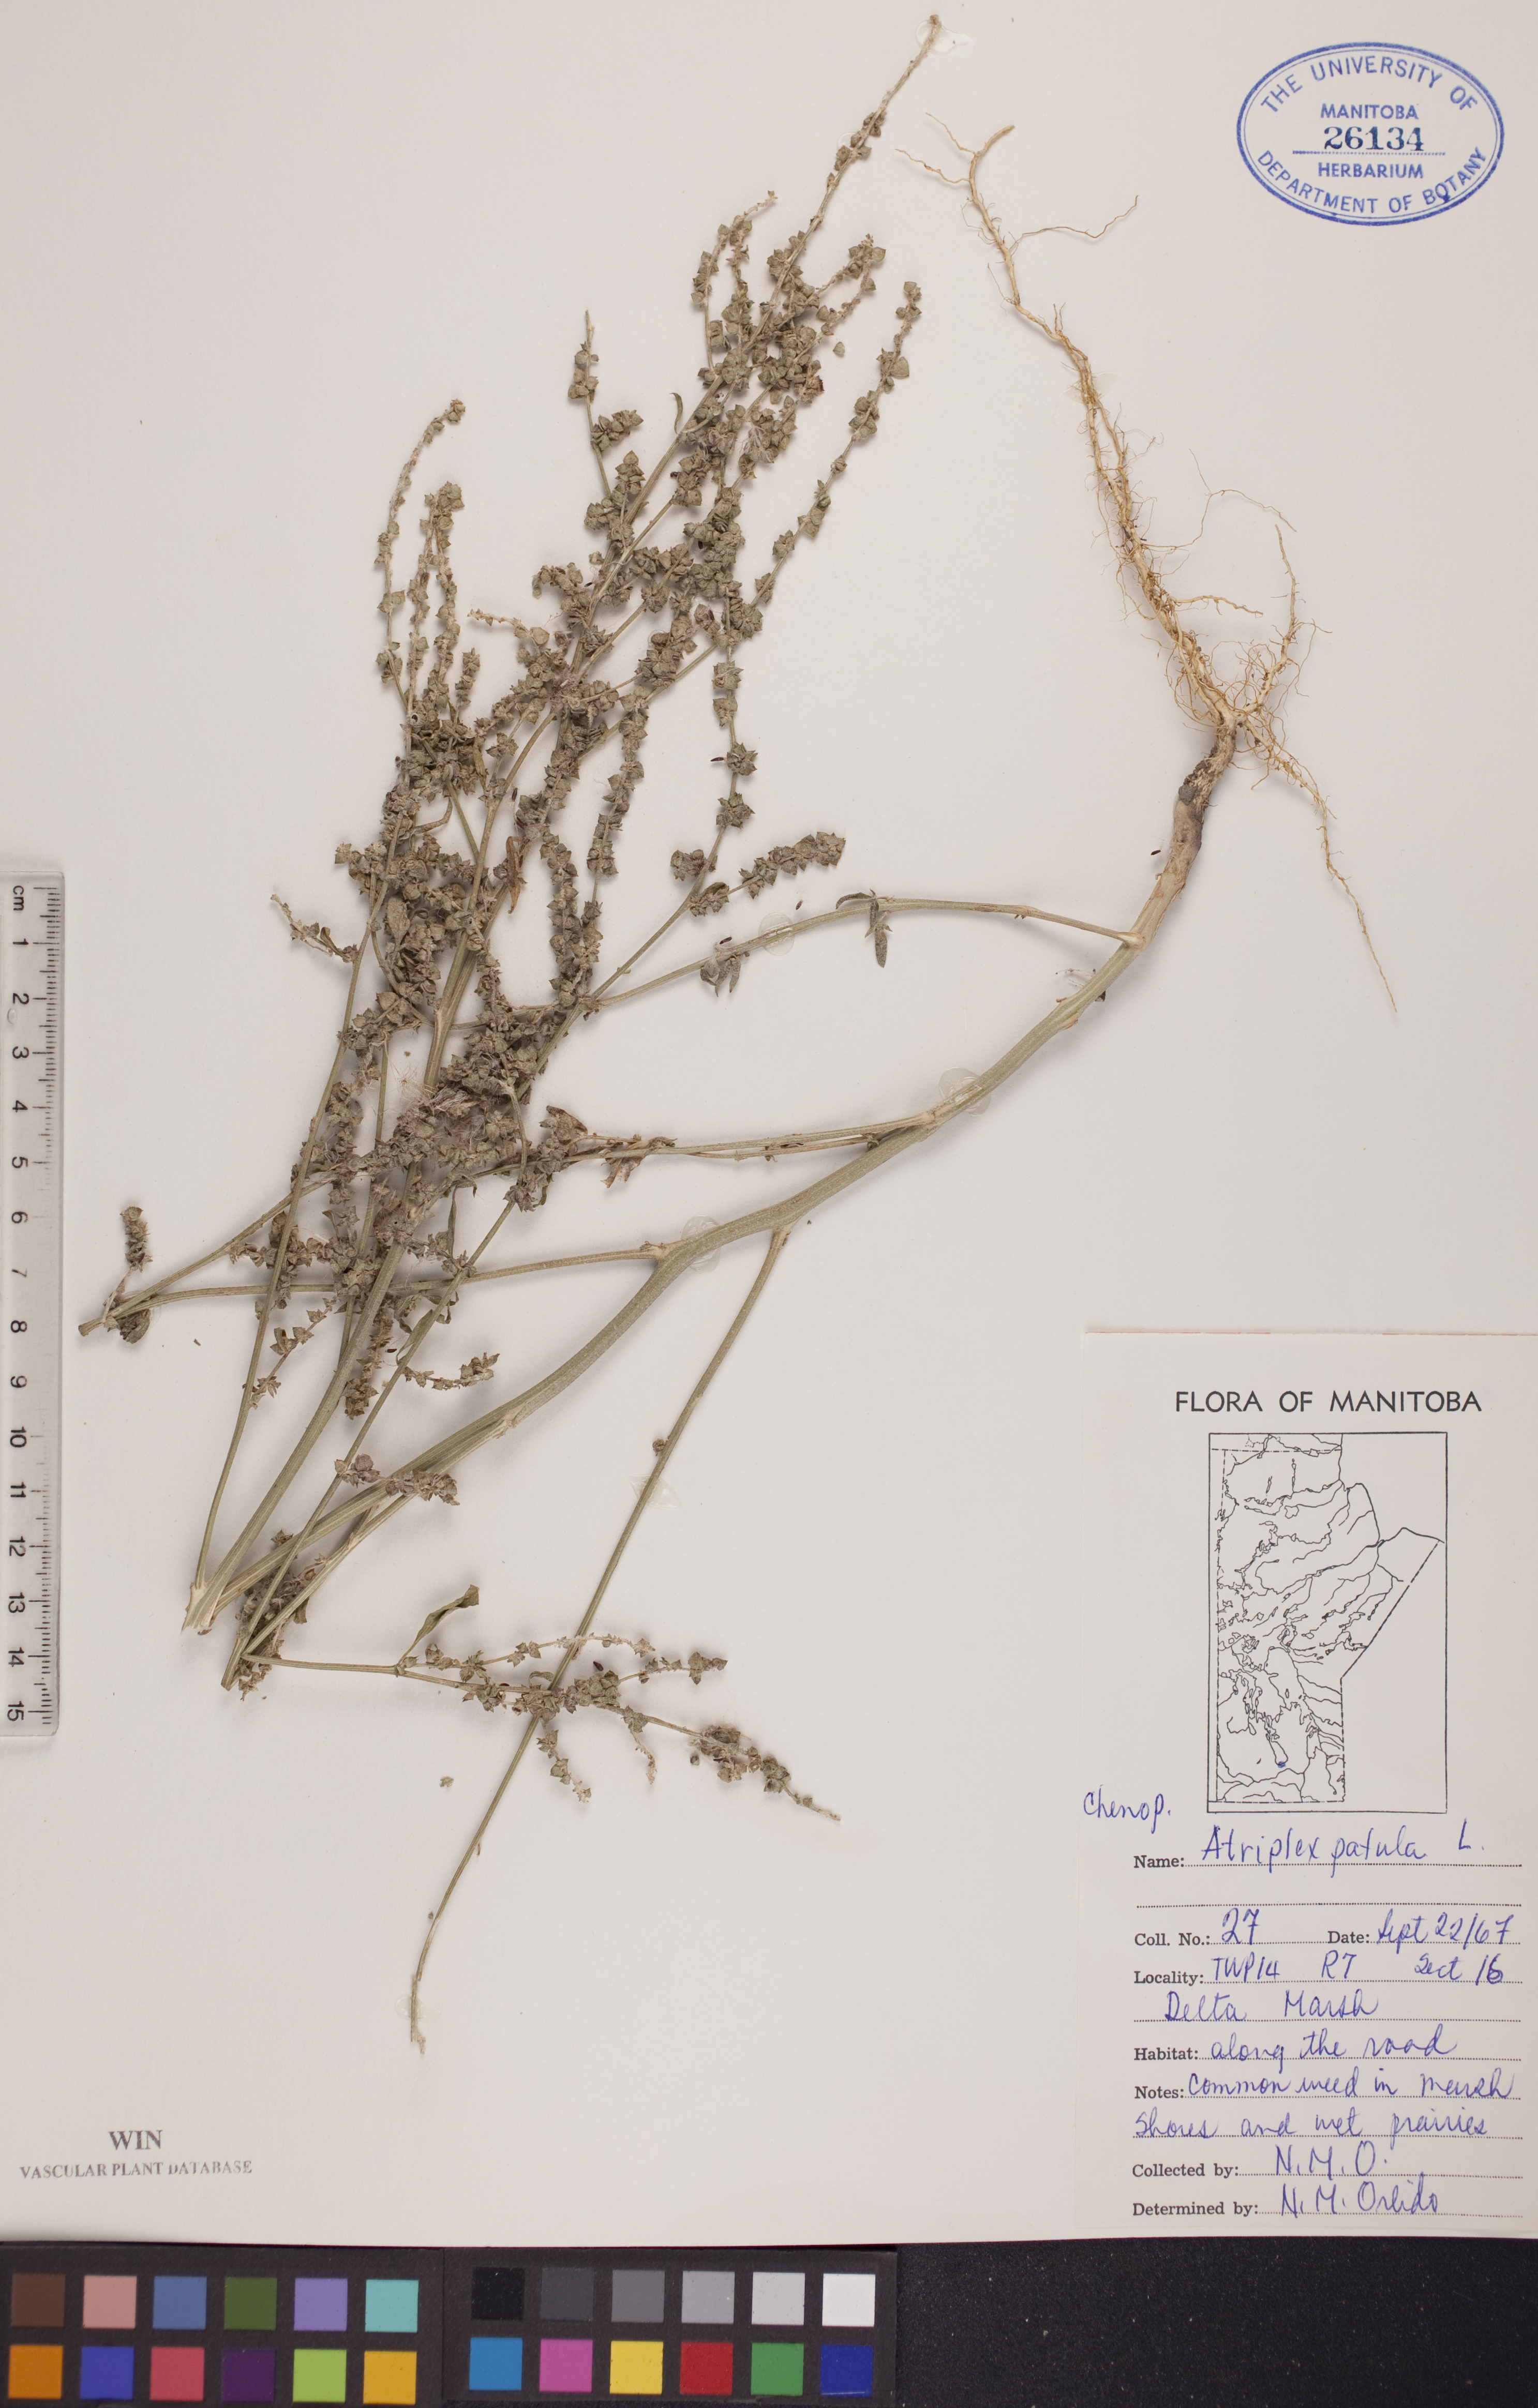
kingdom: Plantae
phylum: Tracheophyta
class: Magnoliopsida
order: Caryophyllales
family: Amaranthaceae
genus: Atriplex
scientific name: Atriplex patula
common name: Common orache
